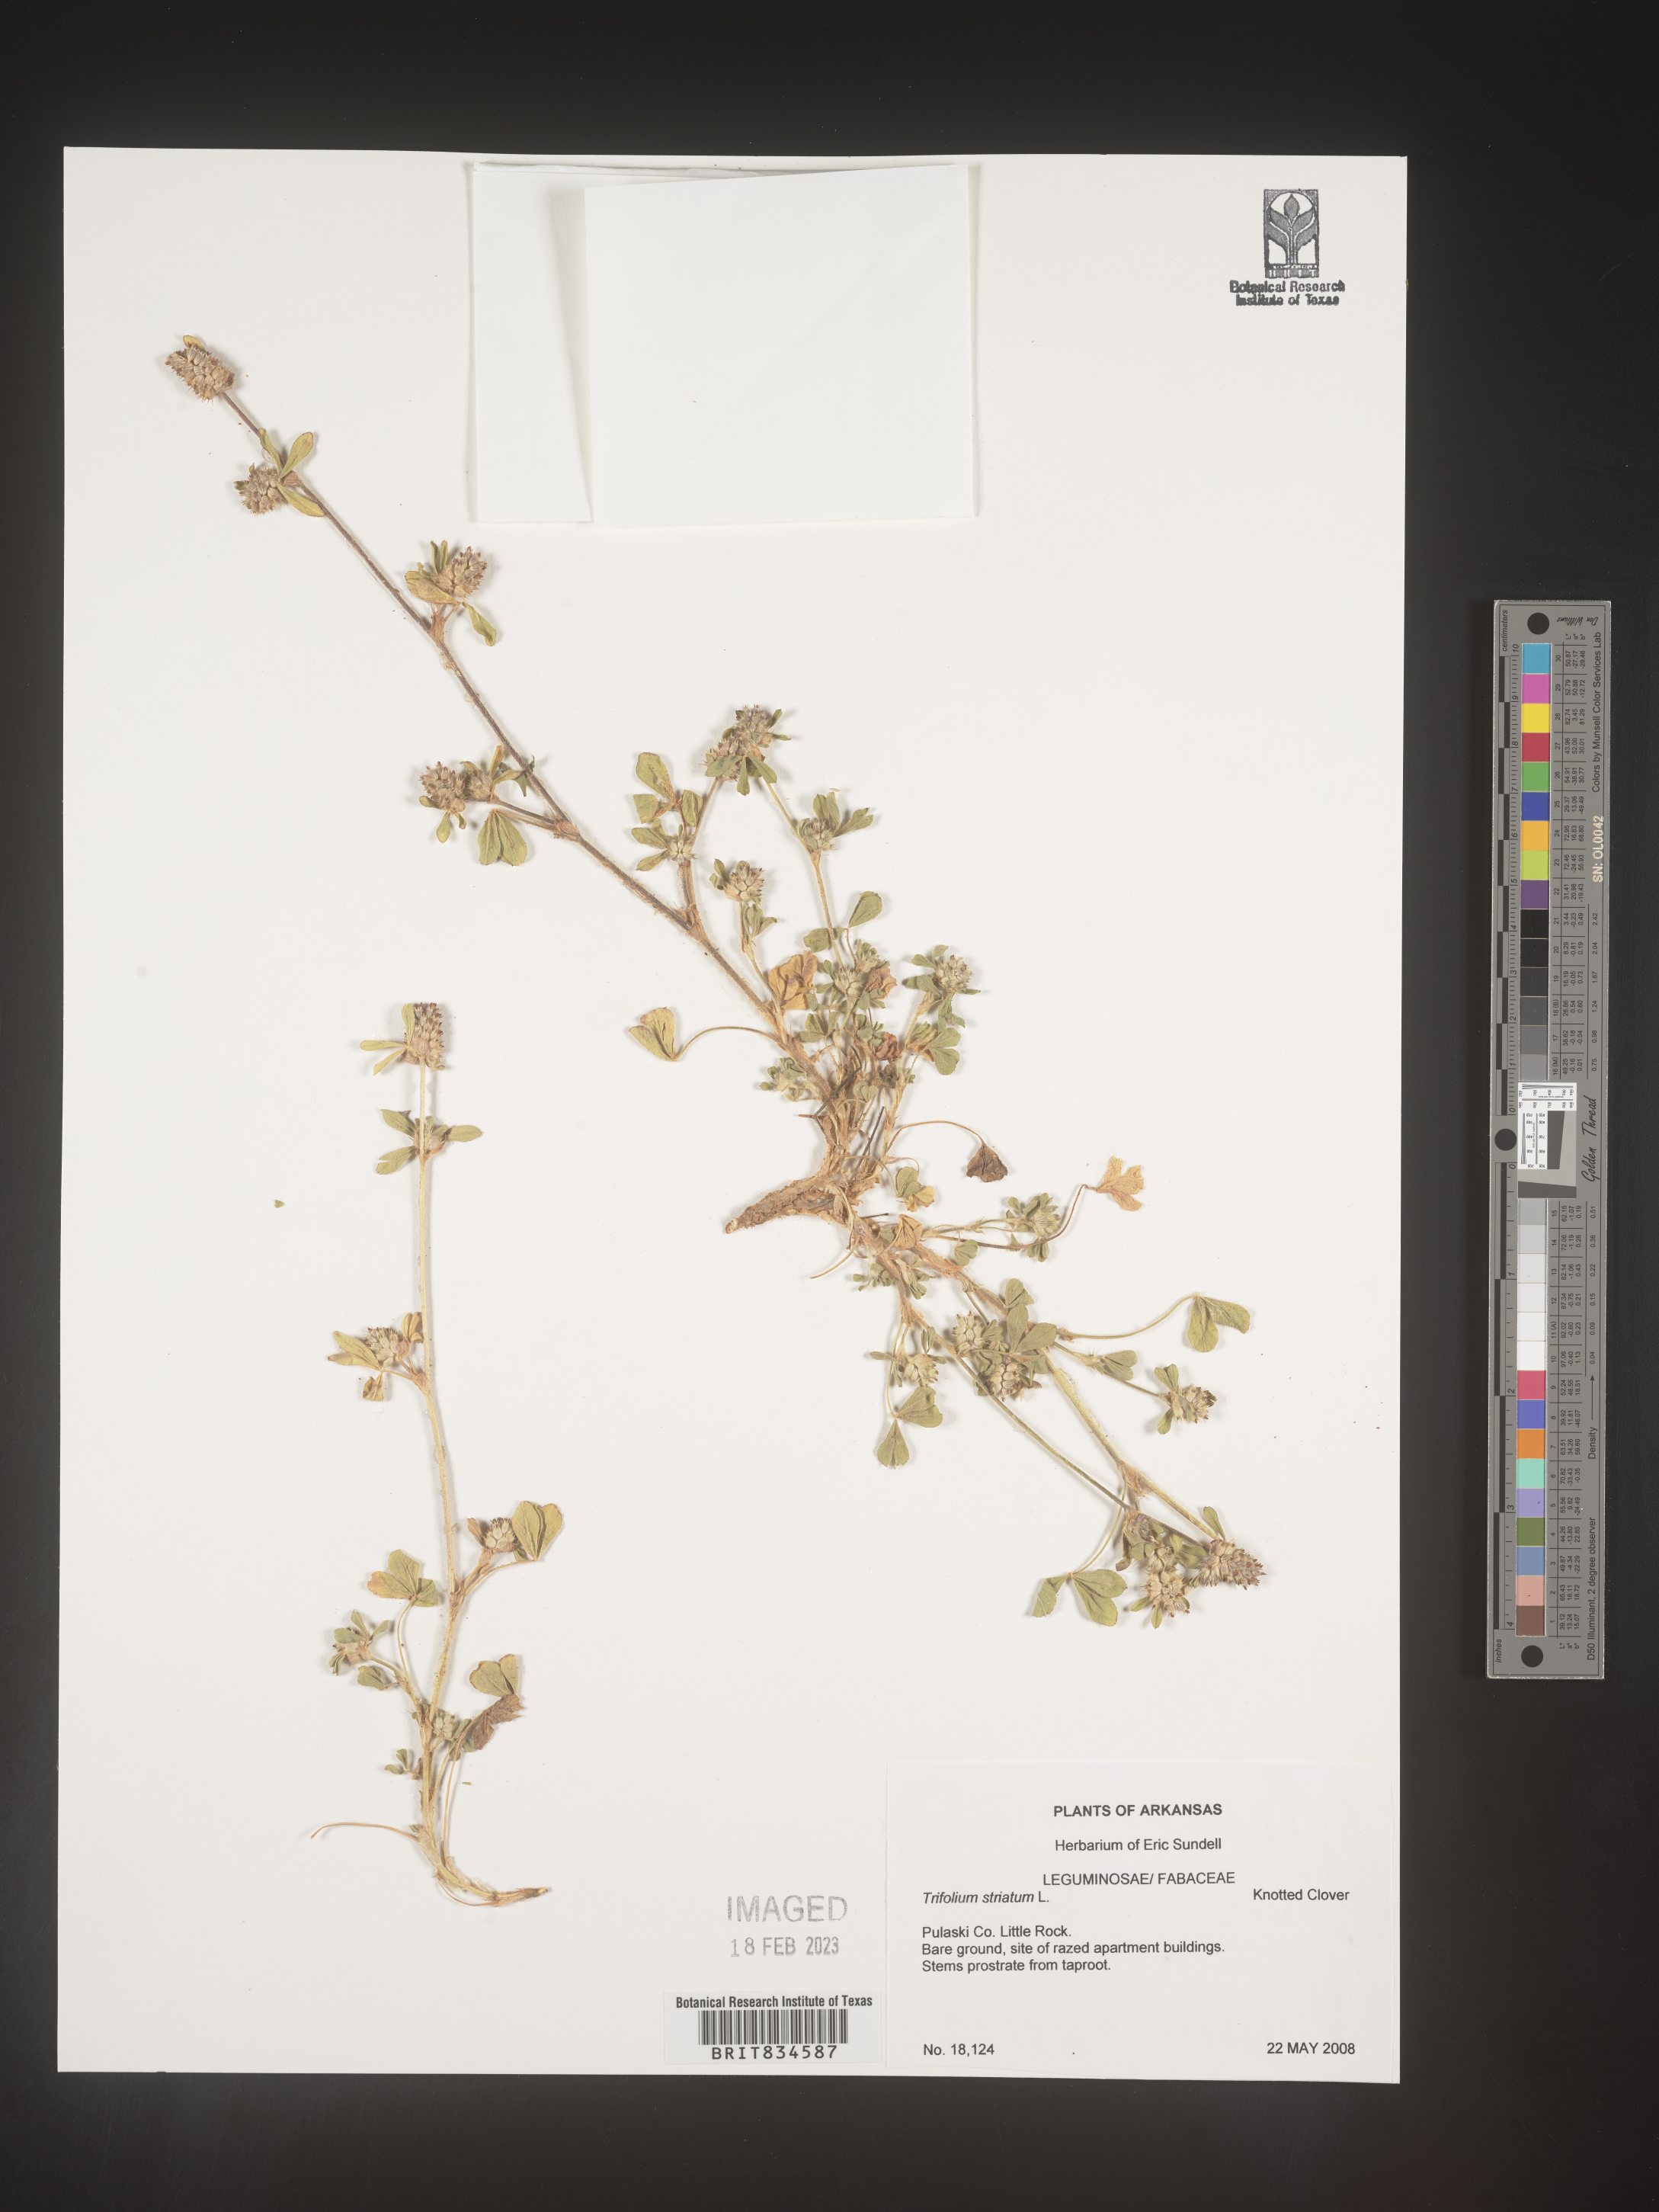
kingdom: Plantae
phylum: Tracheophyta
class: Magnoliopsida
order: Fabales
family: Fabaceae
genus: Trifolium
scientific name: Trifolium
